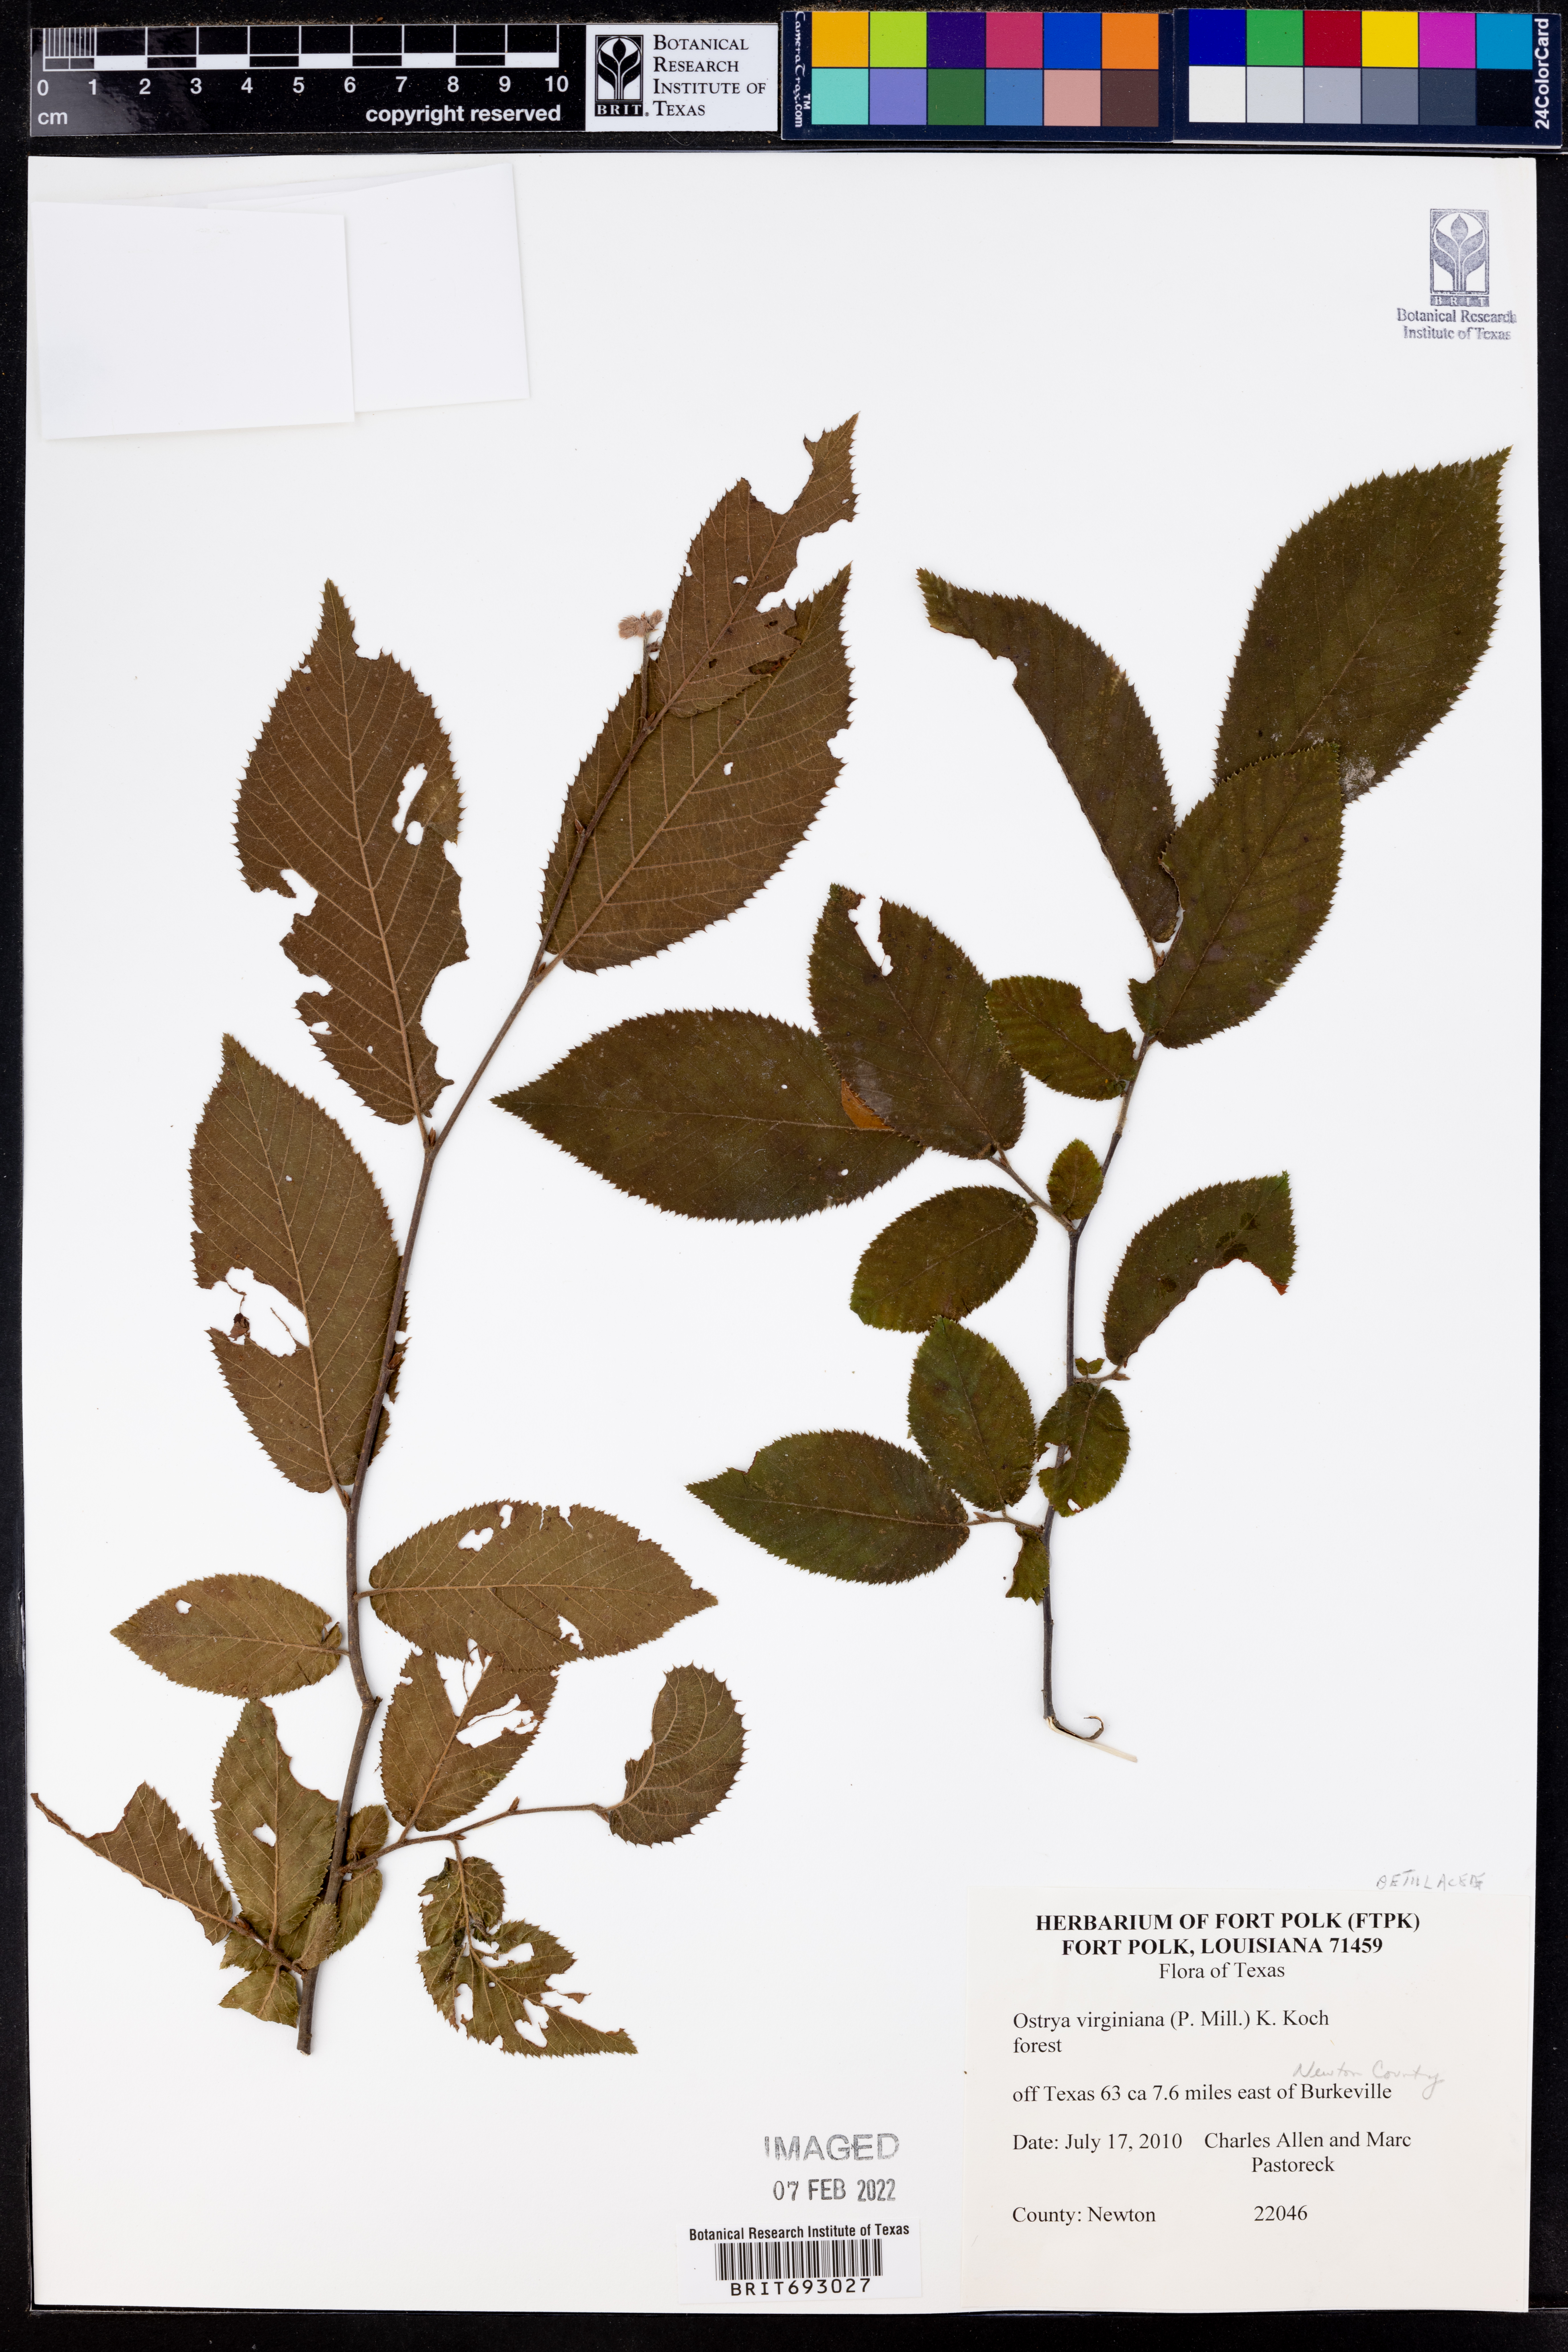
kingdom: Plantae
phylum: Tracheophyta
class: Magnoliopsida
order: Fagales
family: Betulaceae
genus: Ostrya
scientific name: Ostrya virginiana
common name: Ironwood
